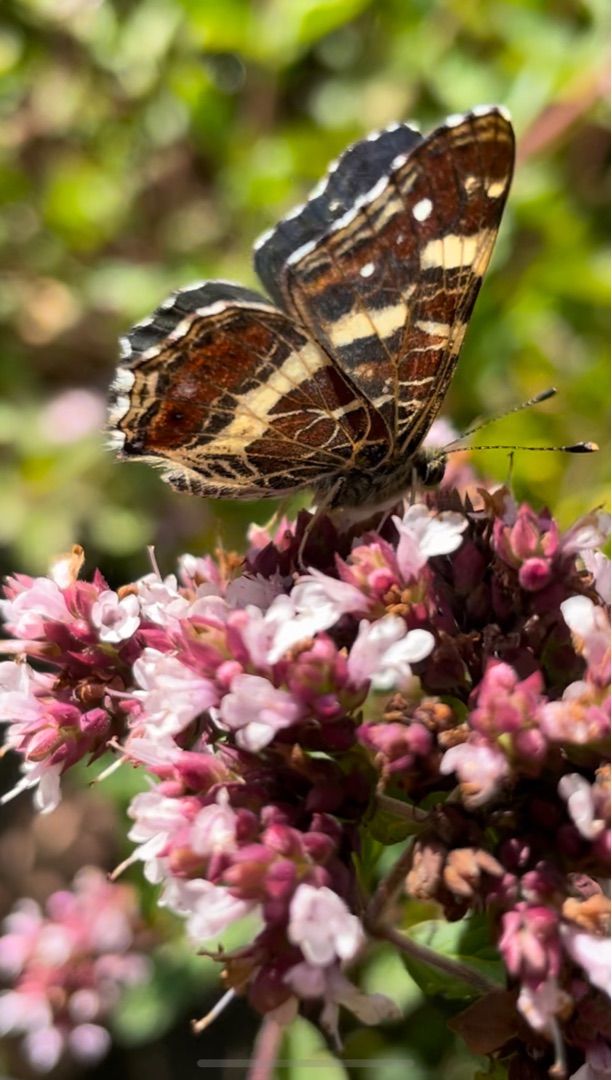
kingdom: Animalia
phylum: Arthropoda
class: Insecta
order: Lepidoptera
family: Nymphalidae
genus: Araschnia
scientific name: Araschnia levana
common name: Nældesommerfugl
